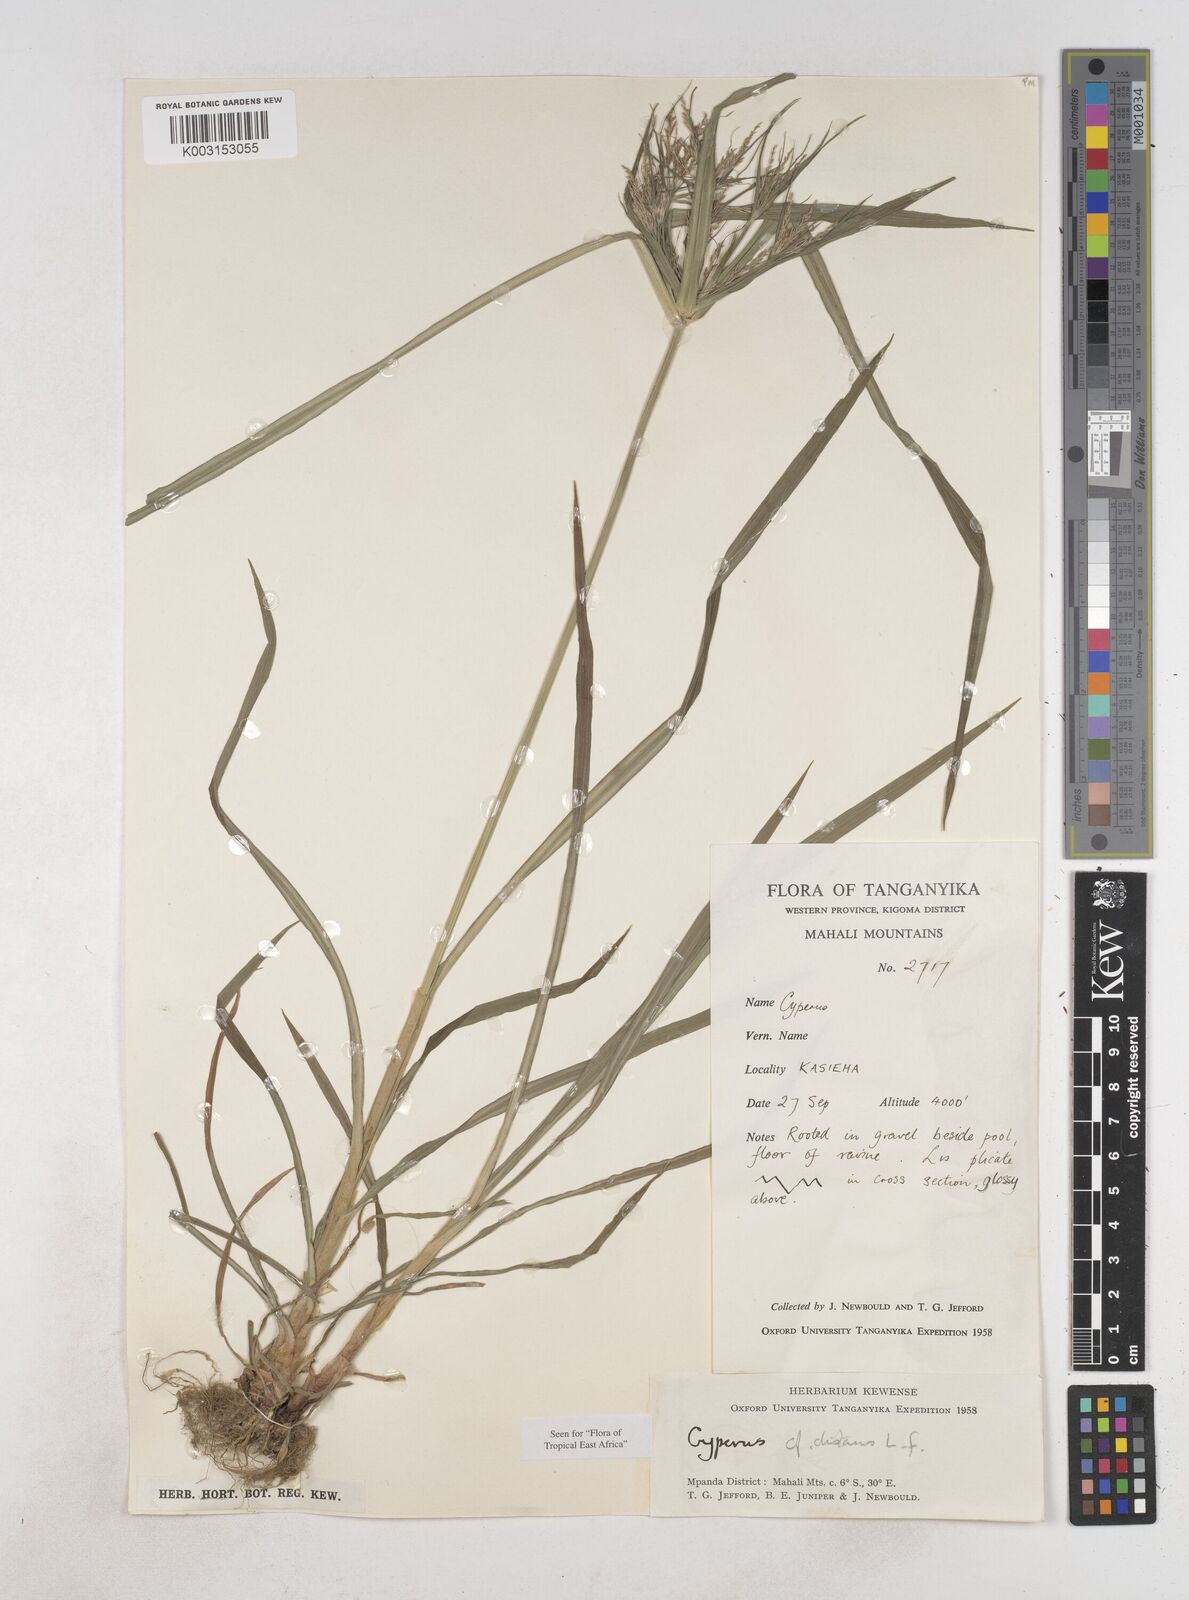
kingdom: Plantae
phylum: Tracheophyta
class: Liliopsida
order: Poales
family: Cyperaceae
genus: Cyperus
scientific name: Cyperus distans
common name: Slender cyperus
